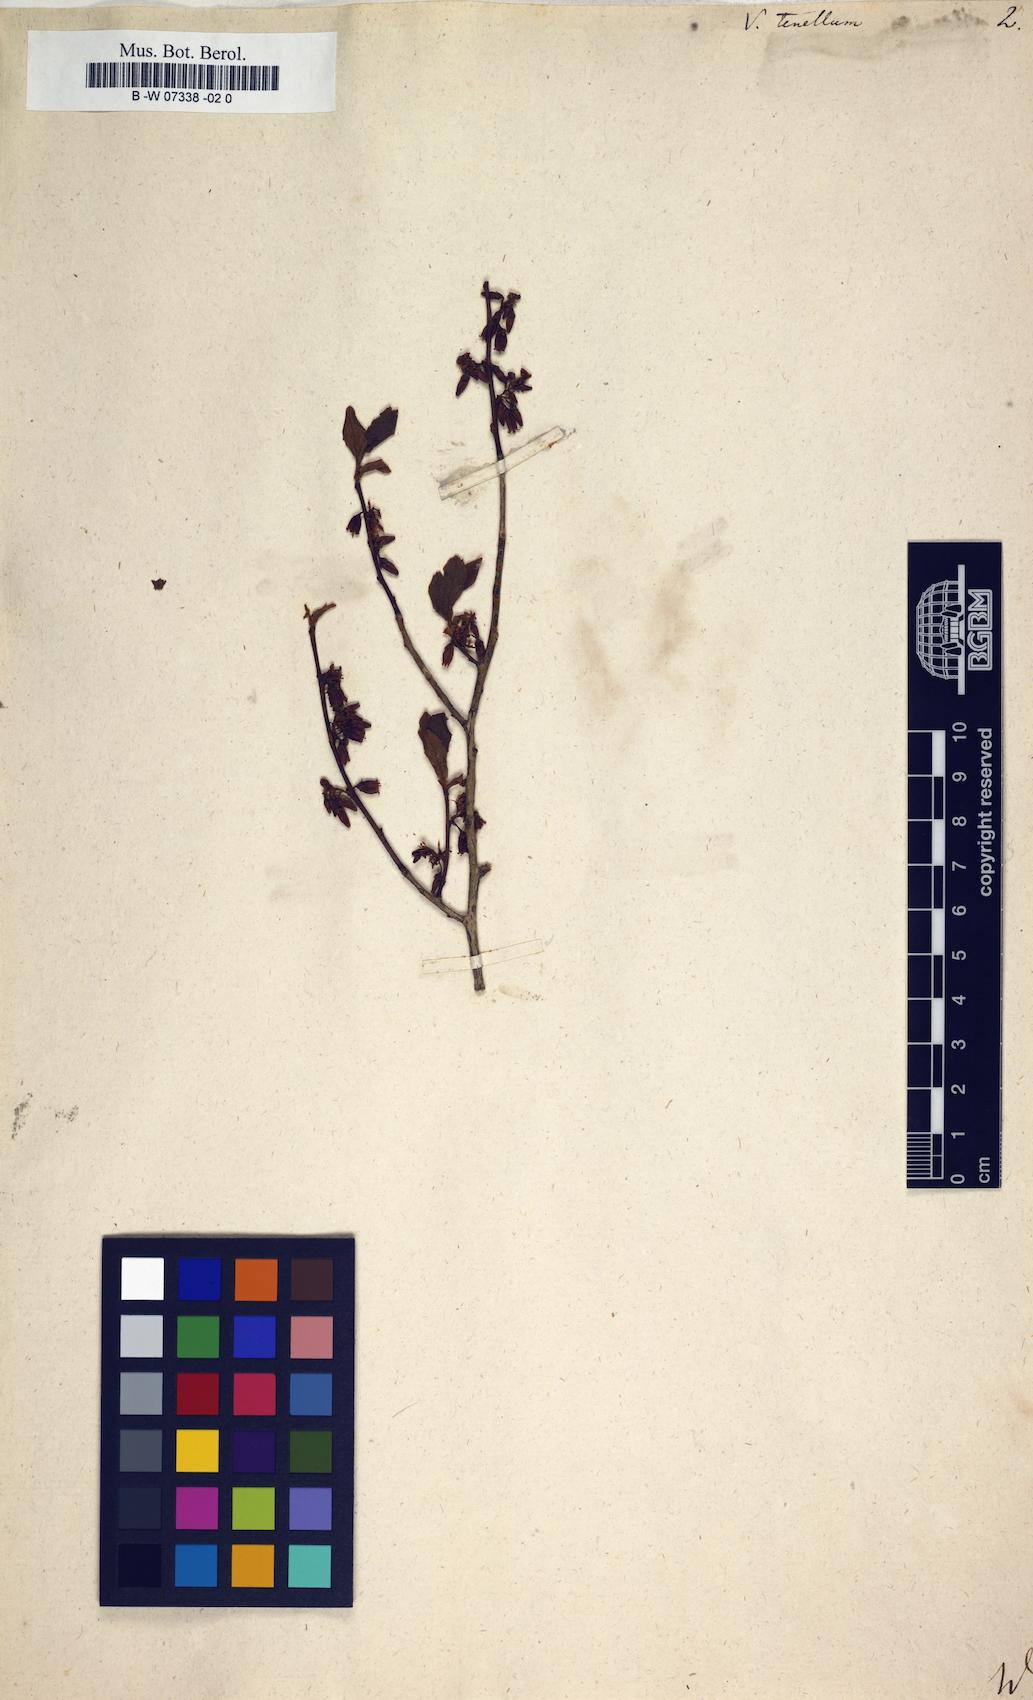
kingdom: Plantae
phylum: Tracheophyta
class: Magnoliopsida
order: Ericales
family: Ericaceae
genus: Vaccinium
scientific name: Vaccinium tenellum
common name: Southern blueberry
